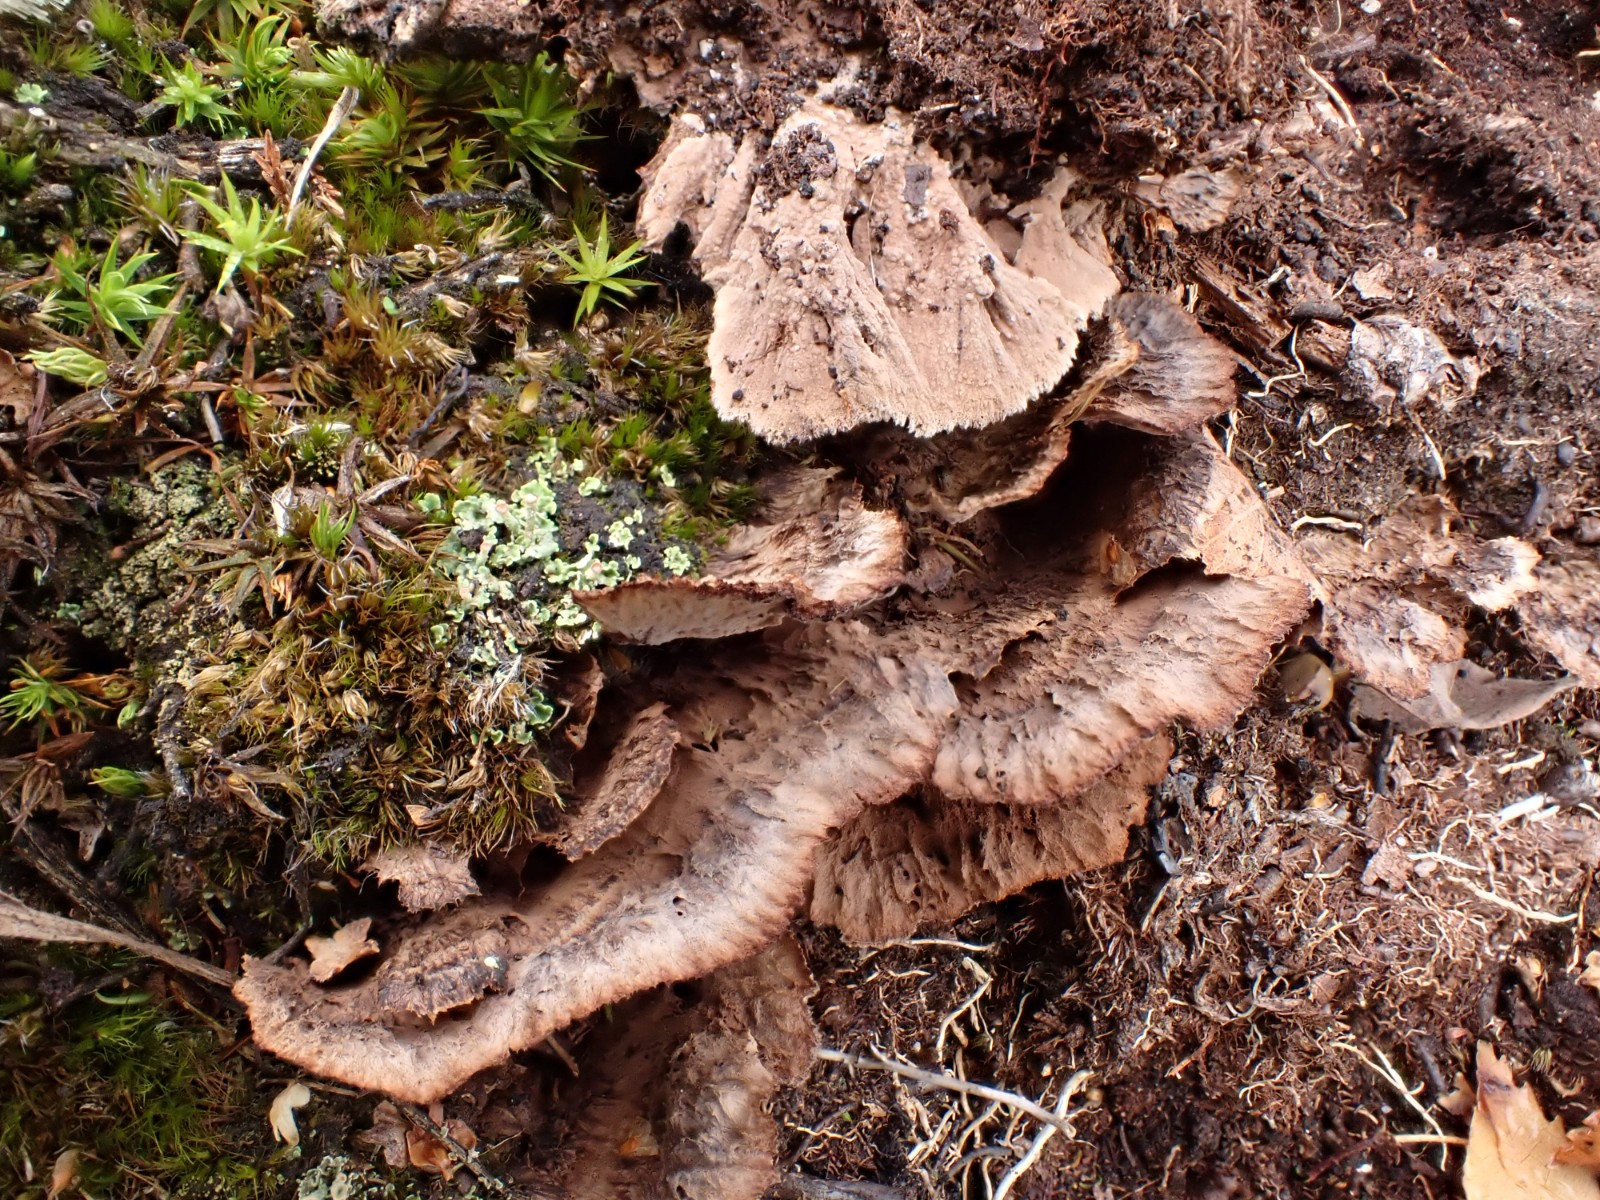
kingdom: Fungi
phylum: Basidiomycota
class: Agaricomycetes
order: Thelephorales
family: Thelephoraceae
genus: Thelephora
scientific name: Thelephora terrestris
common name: fliget frynsesvamp
